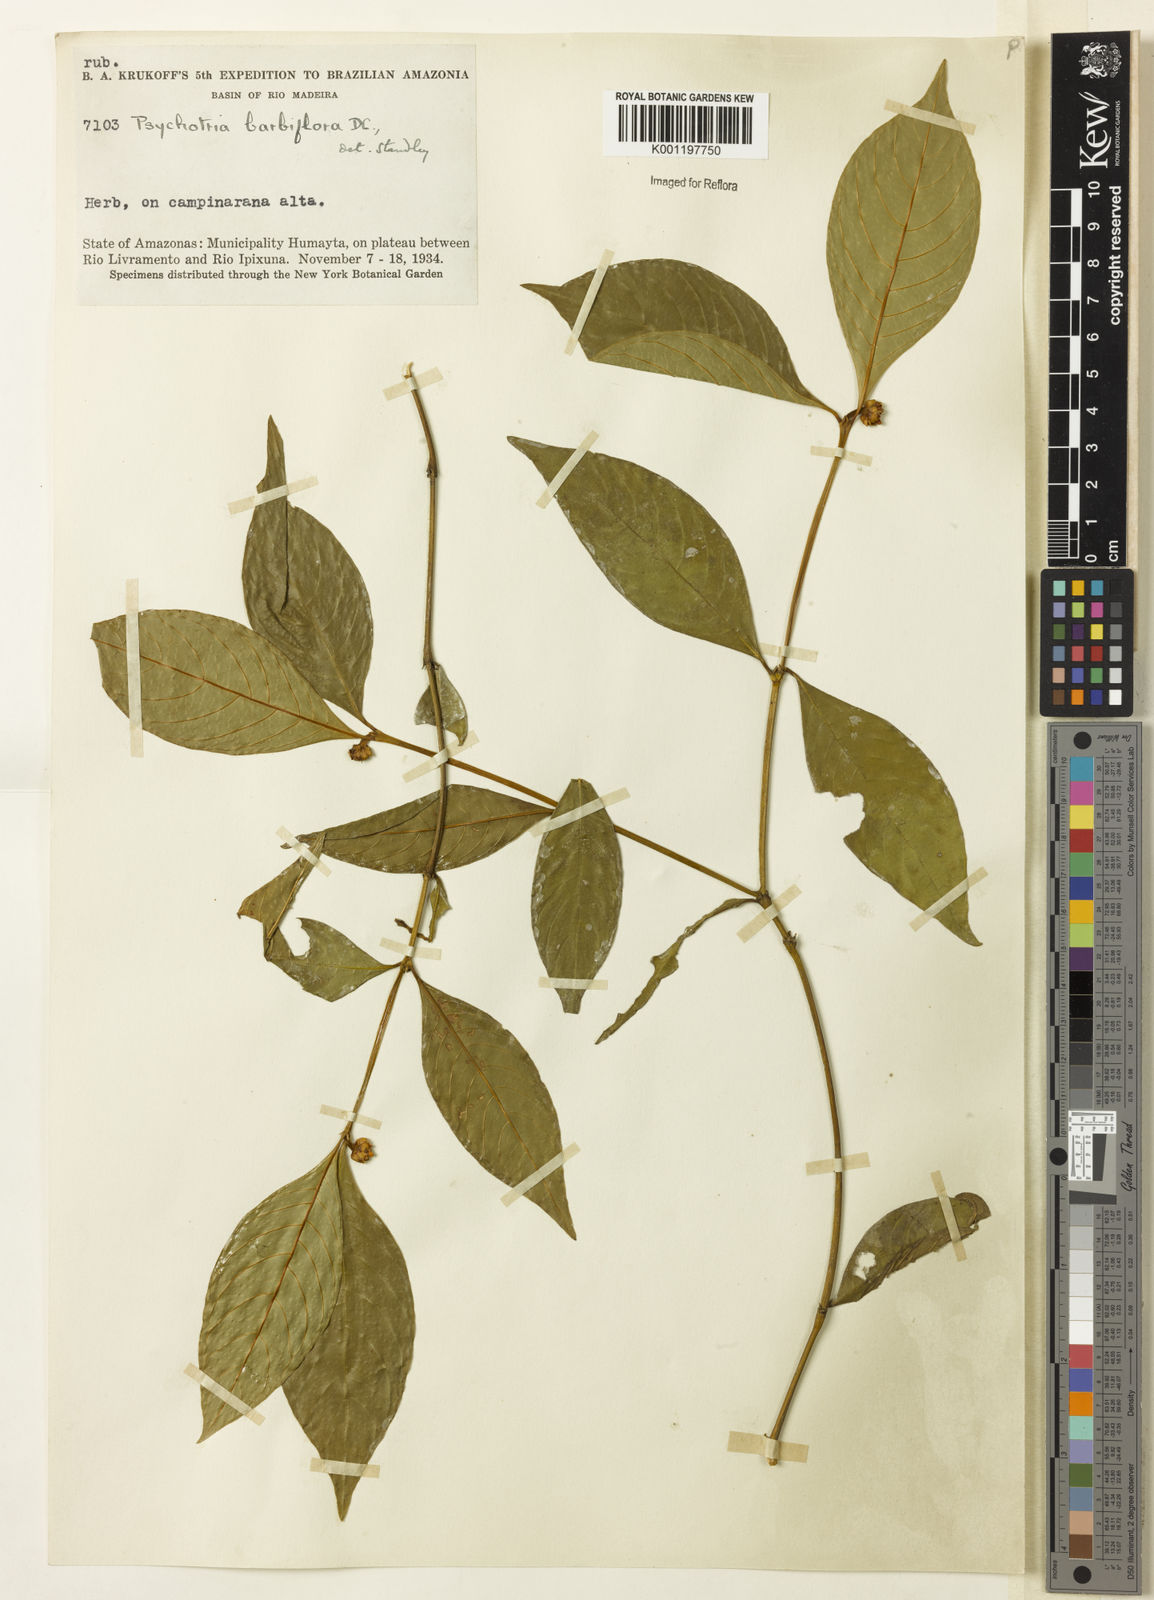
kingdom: Plantae
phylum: Tracheophyta
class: Magnoliopsida
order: Gentianales
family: Rubiaceae
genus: Palicourea
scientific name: Palicourea hoffmannseggiana
